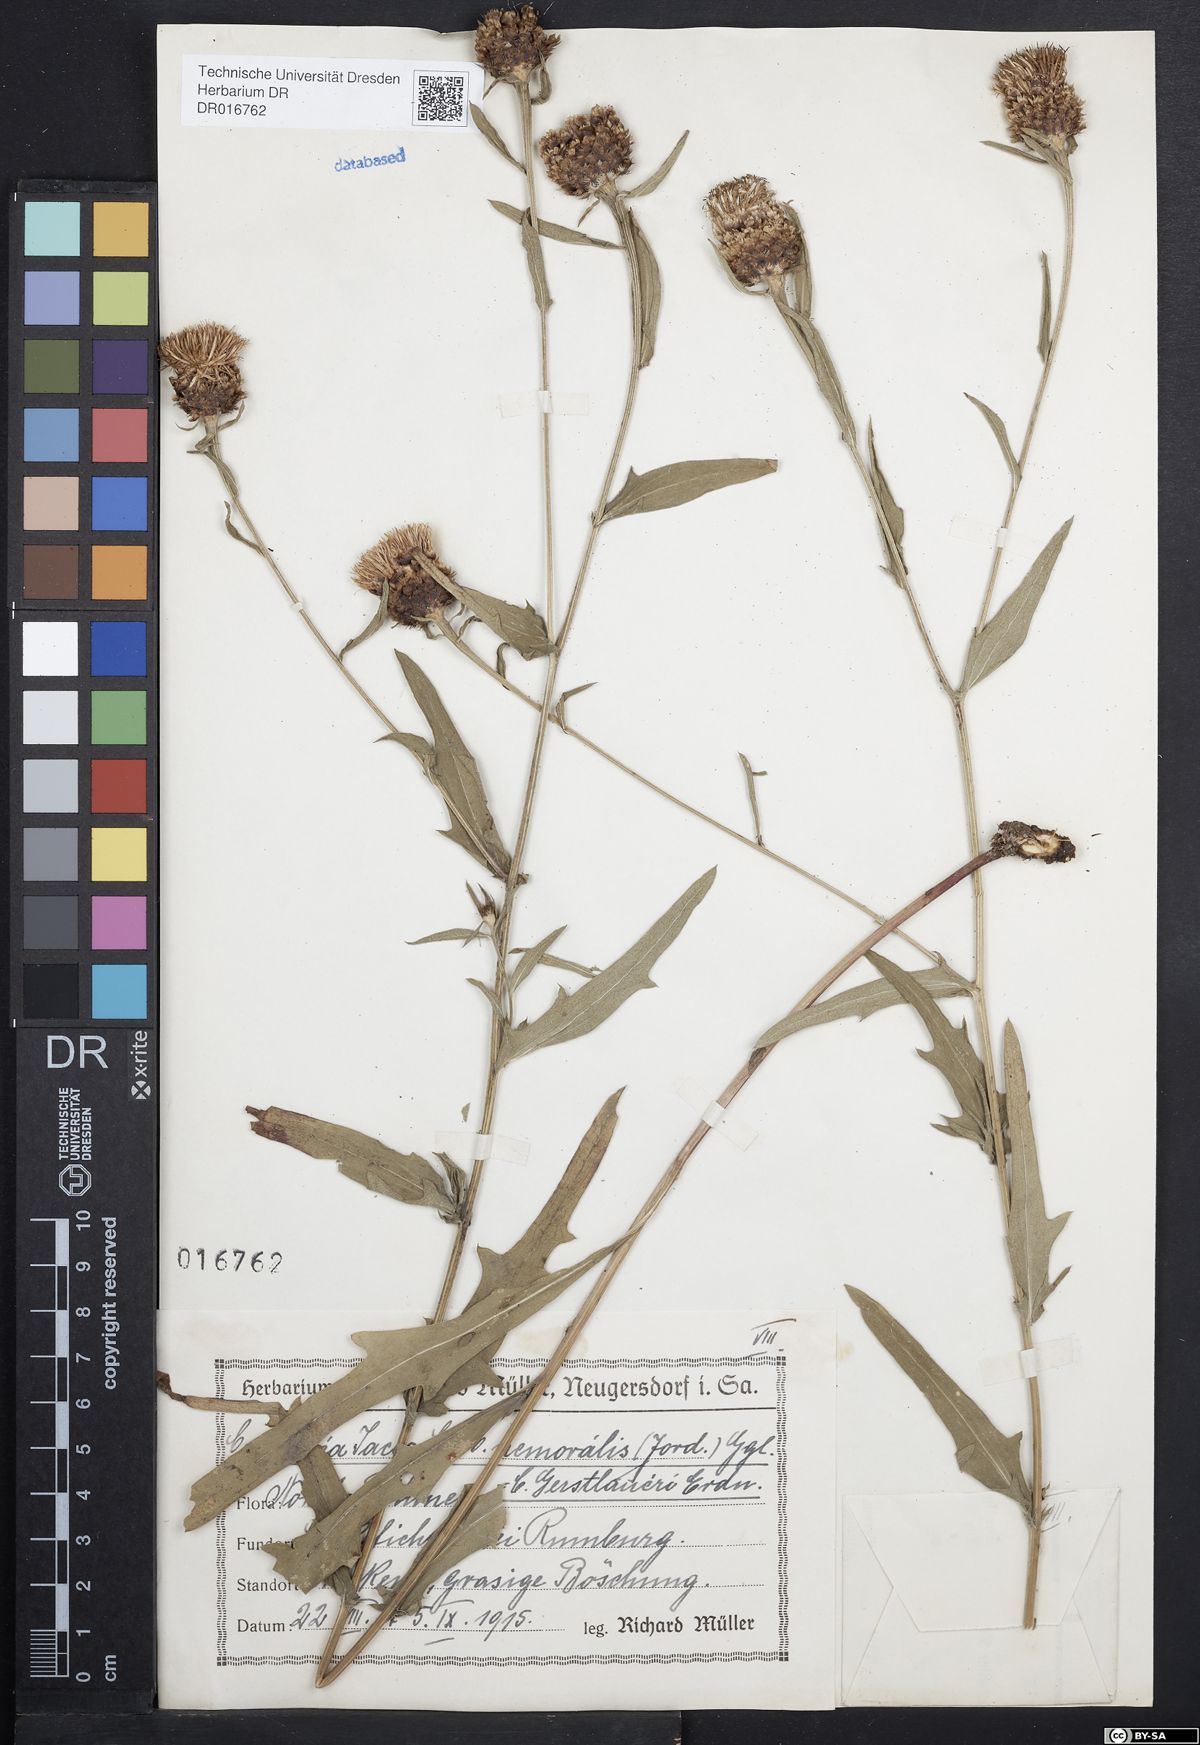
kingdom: Plantae
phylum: Tracheophyta
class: Magnoliopsida
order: Asterales
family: Asteraceae
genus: Centaurea
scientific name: Centaurea jacea
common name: Brown knapweed
